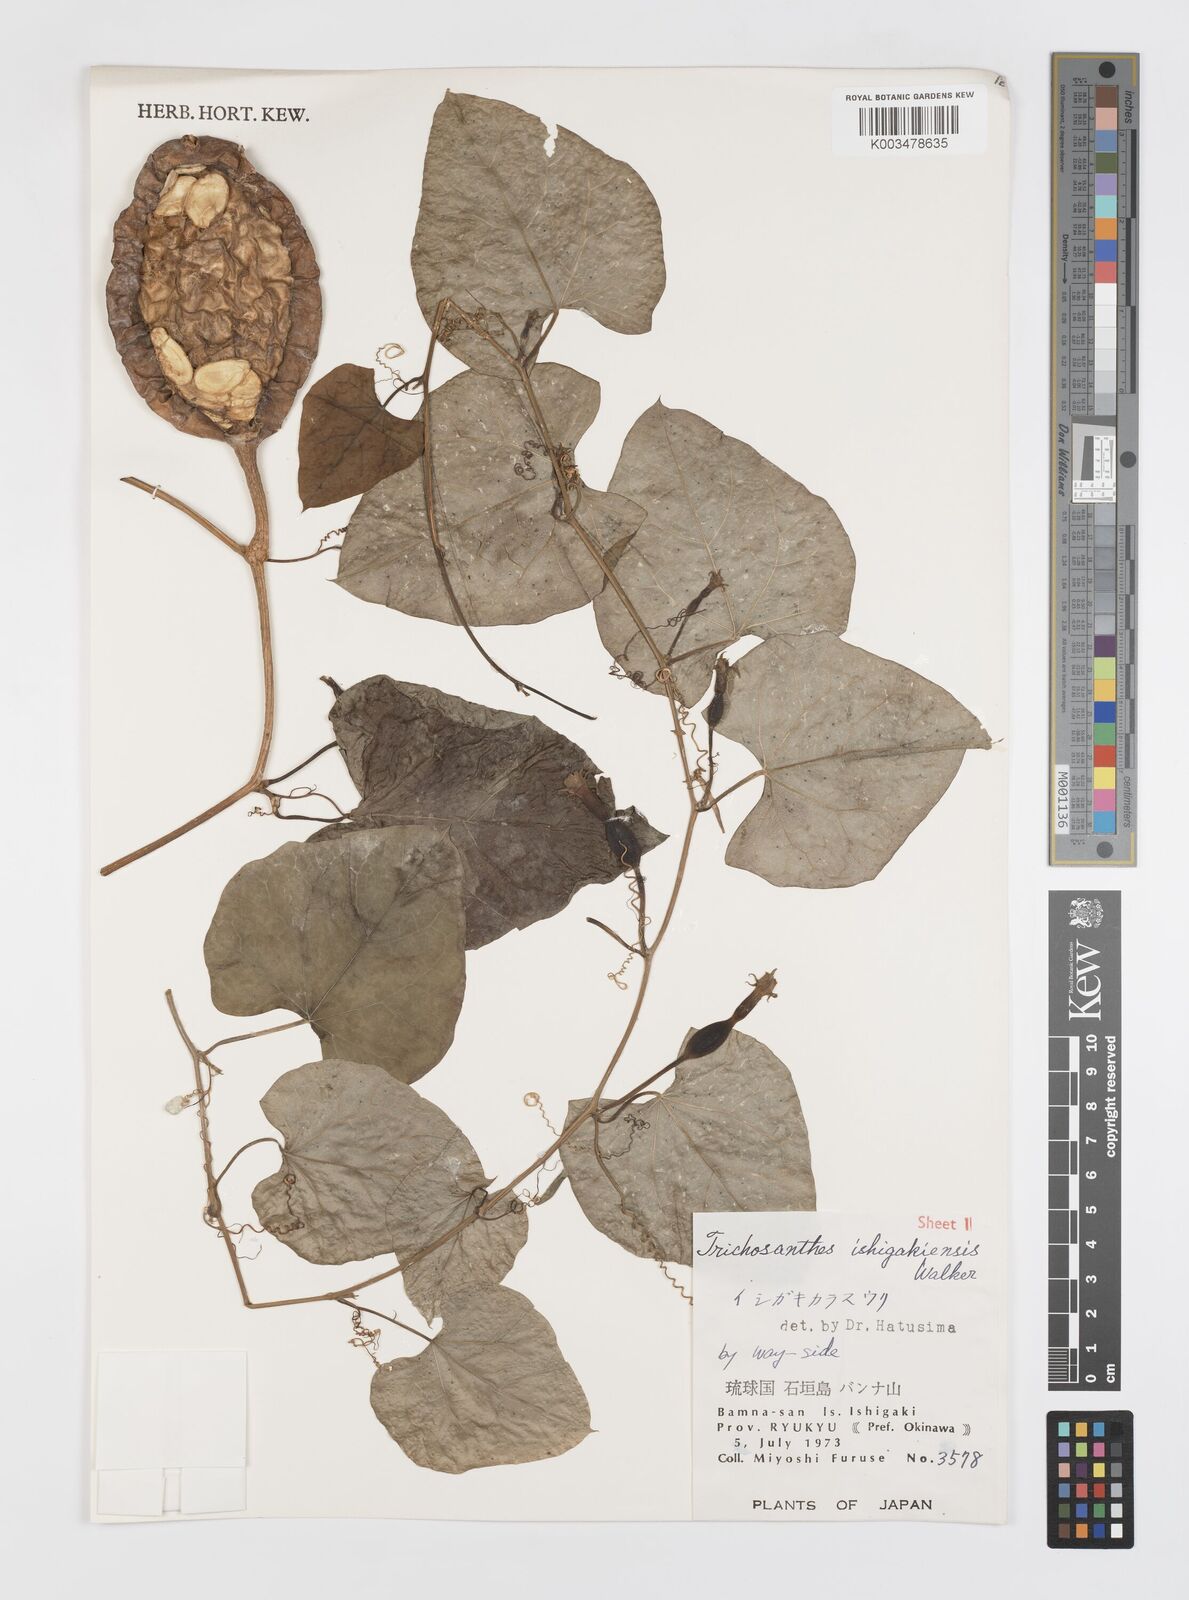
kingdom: Plantae
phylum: Tracheophyta
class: Magnoliopsida
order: Cucurbitales
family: Cucurbitaceae
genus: Trichosanthes
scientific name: Trichosanthes ishigakiensis
